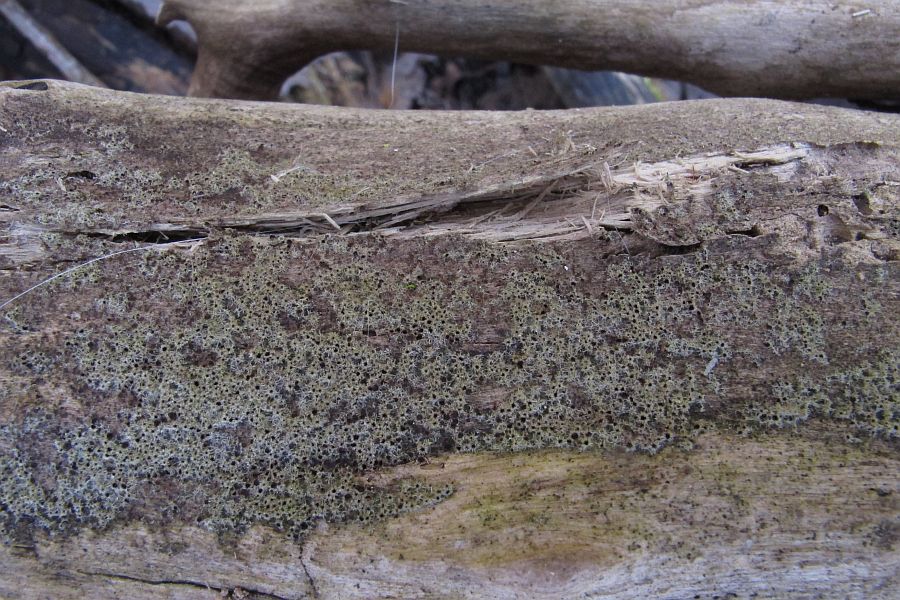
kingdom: Fungi
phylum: Ascomycota
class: Sordariomycetes
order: Sordariales
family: Helminthosphaeriaceae
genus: Echinosphaeria
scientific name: Echinosphaeria strigosa
